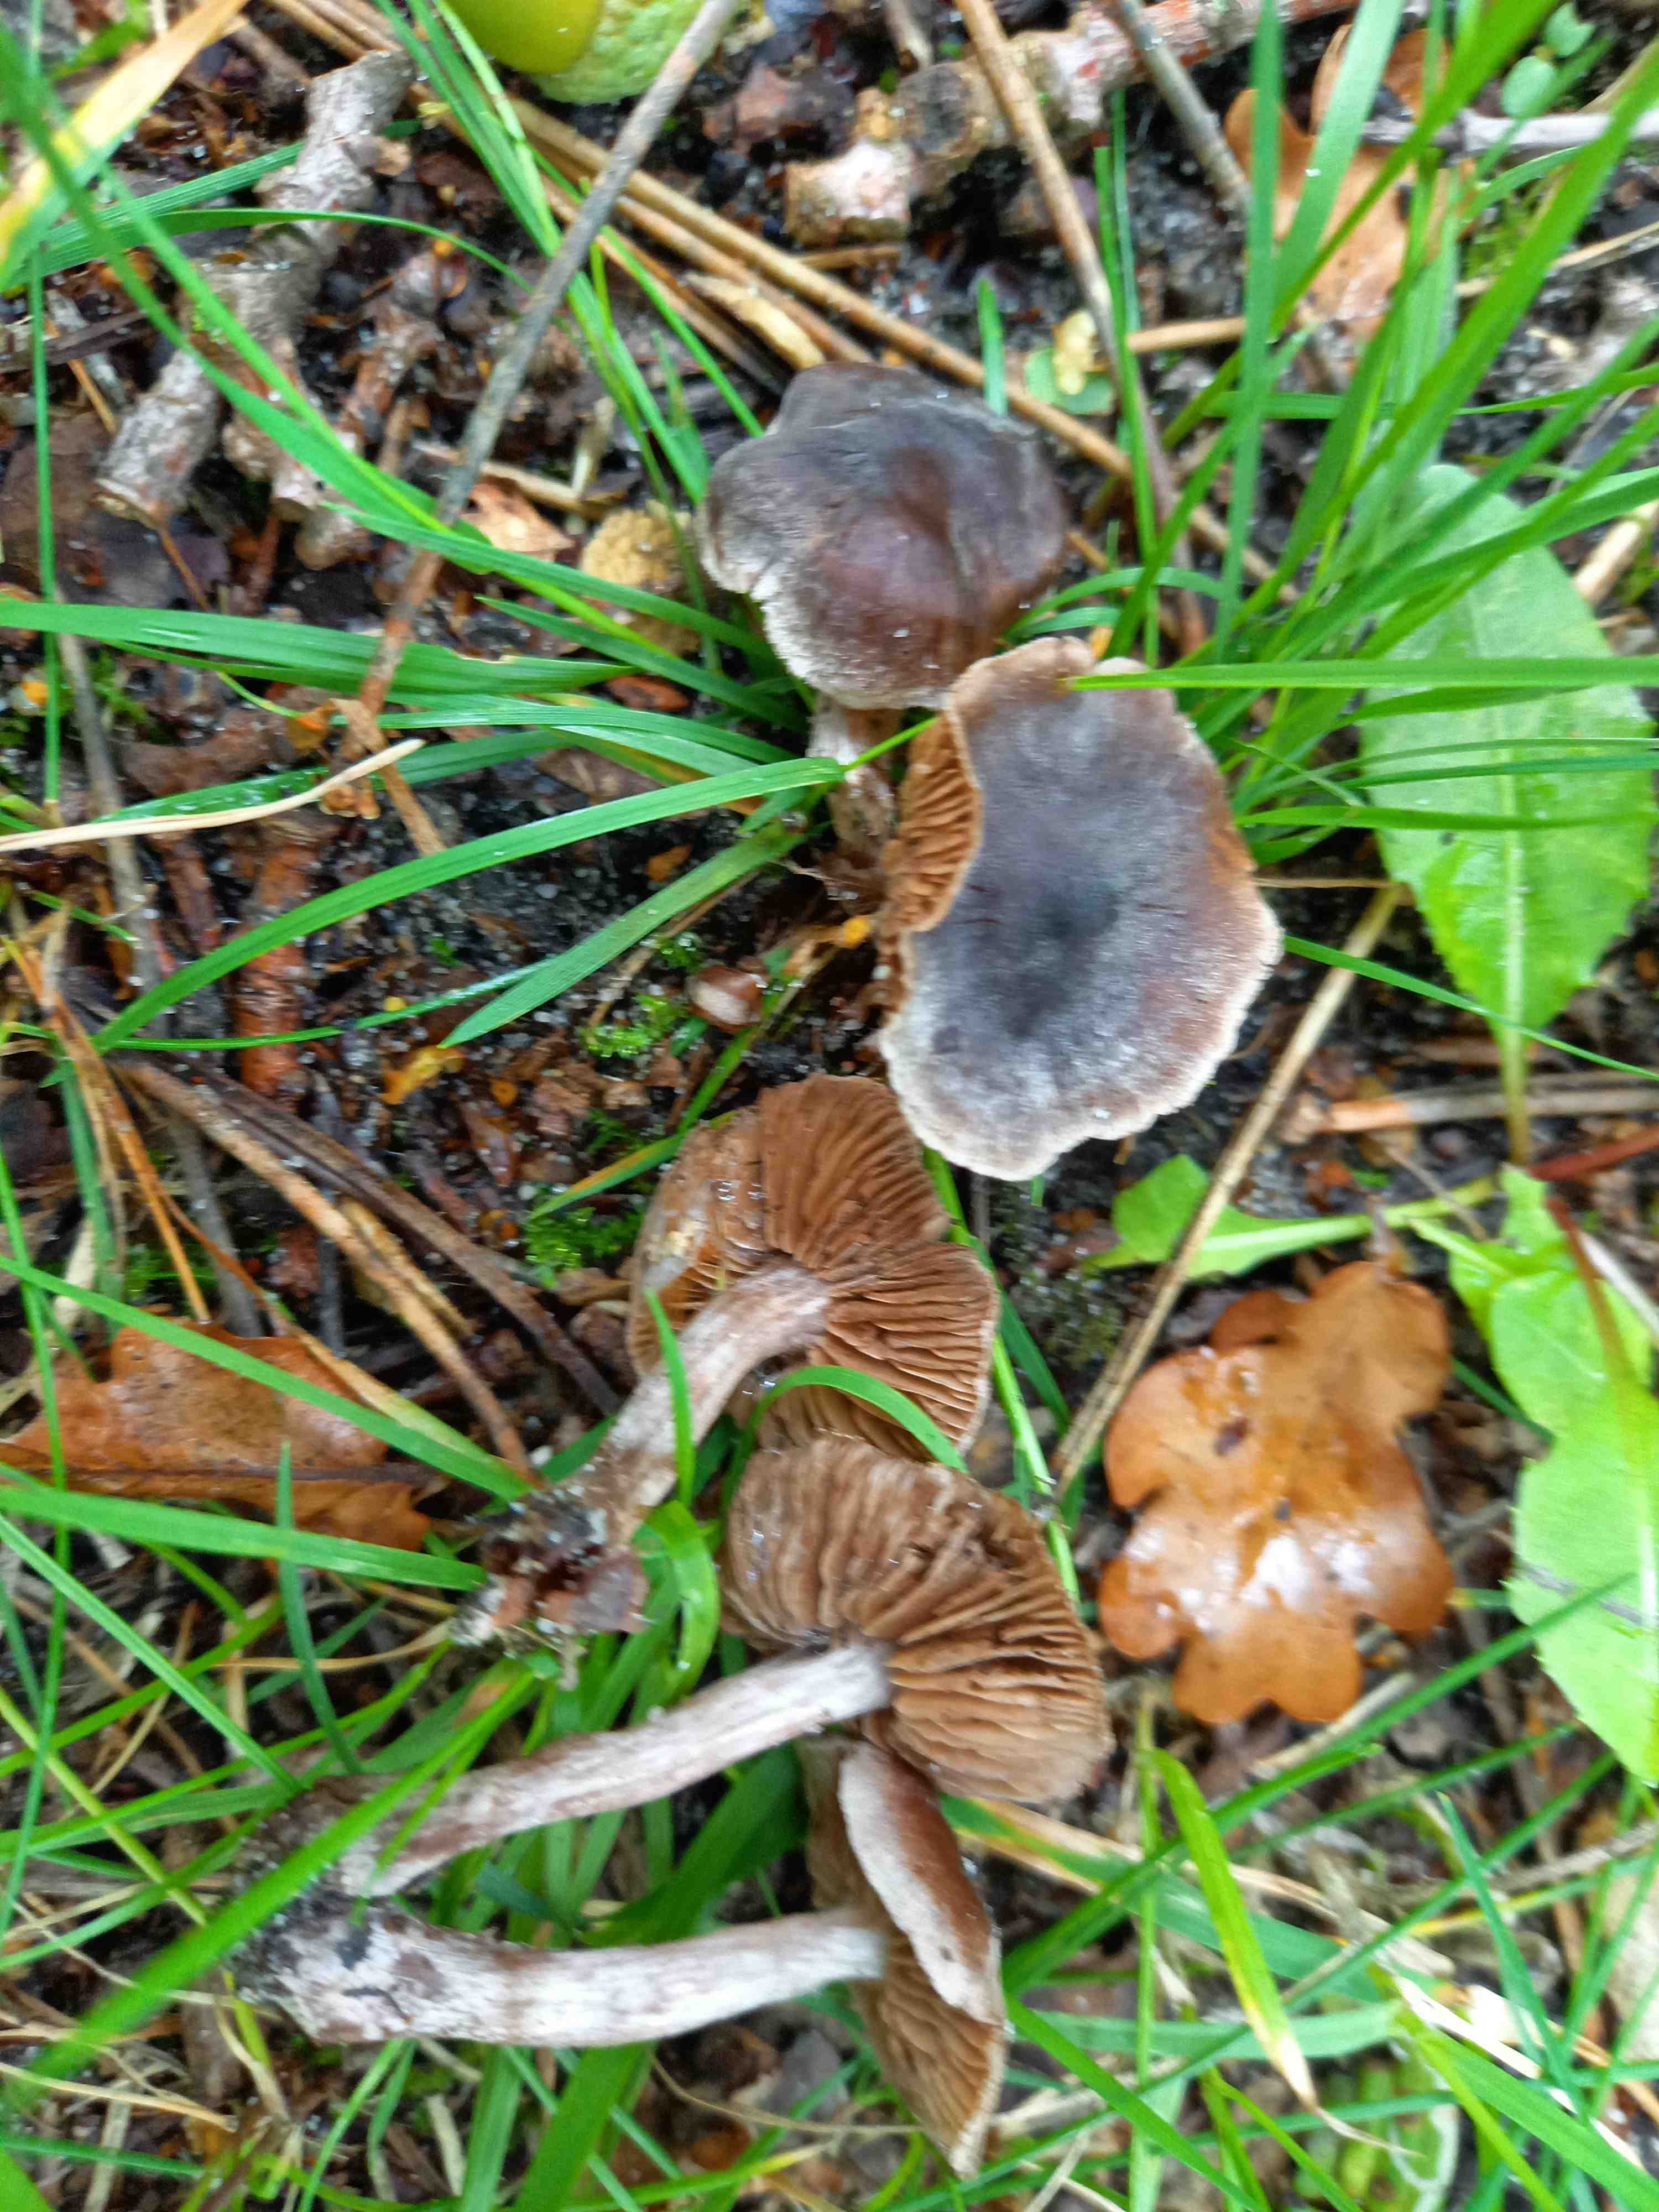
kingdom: Fungi
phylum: Basidiomycota
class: Agaricomycetes
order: Agaricales
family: Cortinariaceae
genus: Cortinarius
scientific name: Cortinarius
